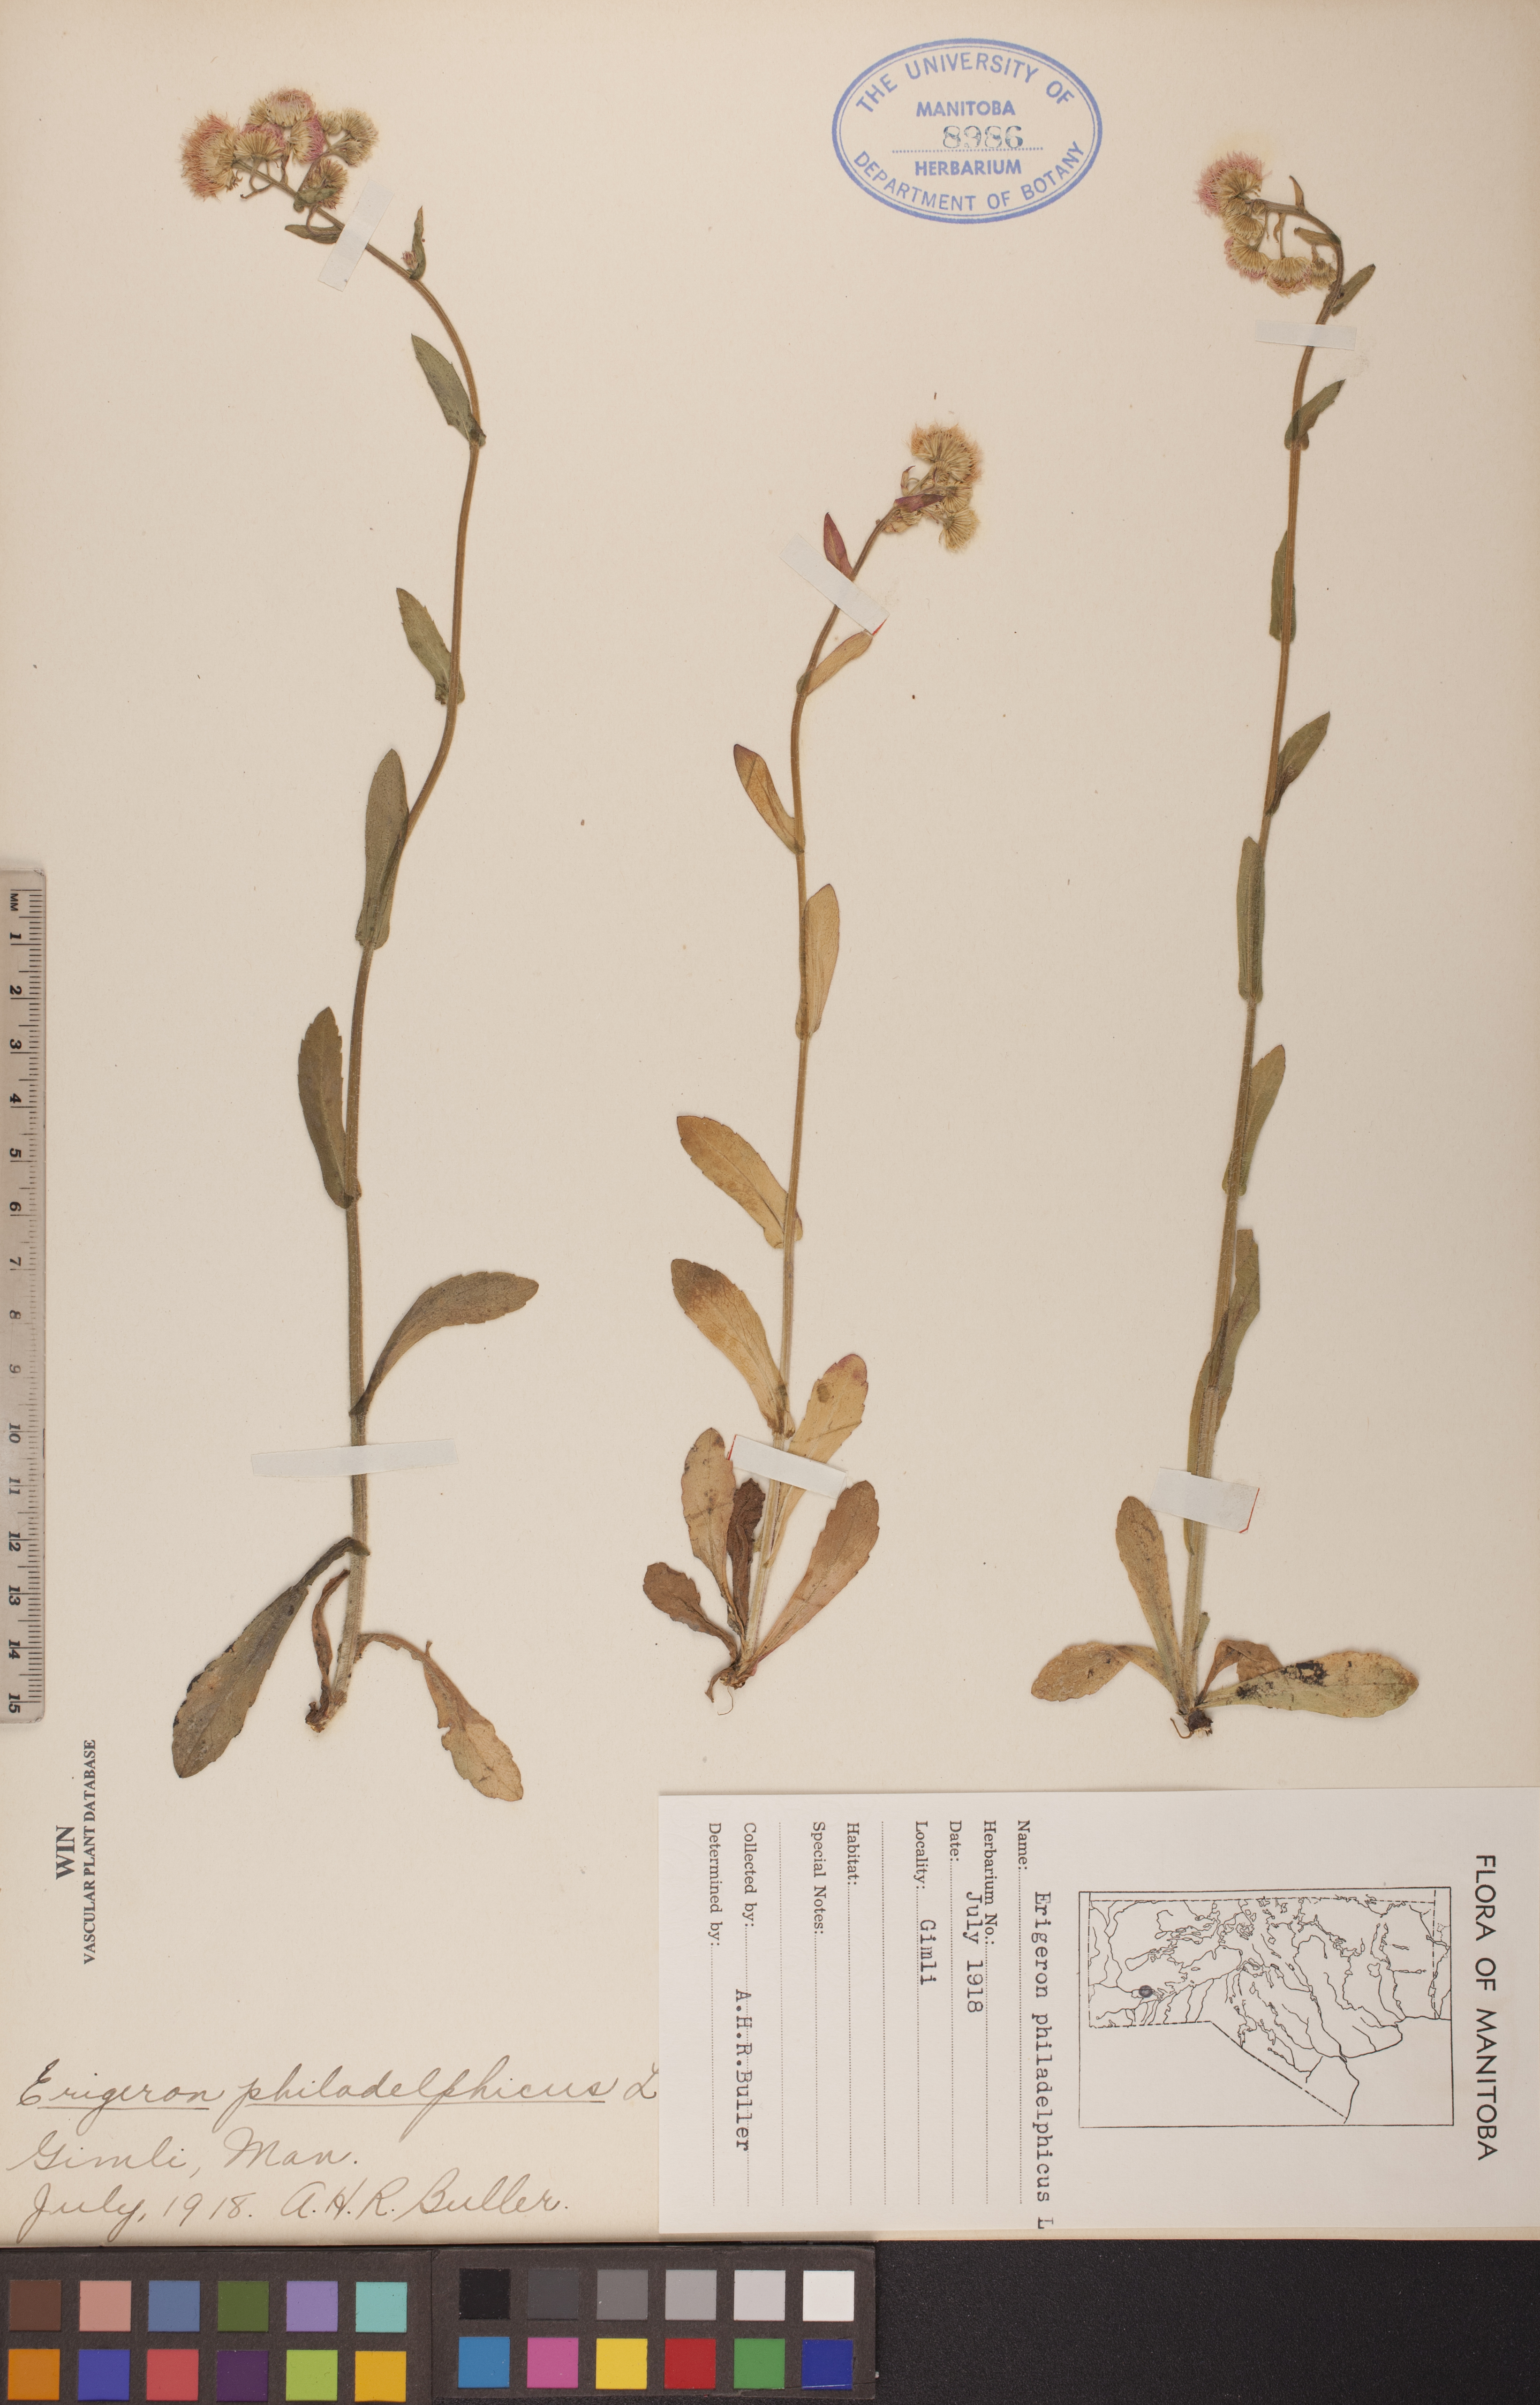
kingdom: Plantae
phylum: Tracheophyta
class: Magnoliopsida
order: Asterales
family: Asteraceae
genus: Erigeron
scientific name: Erigeron philadelphicus
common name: Robin's-plantain
